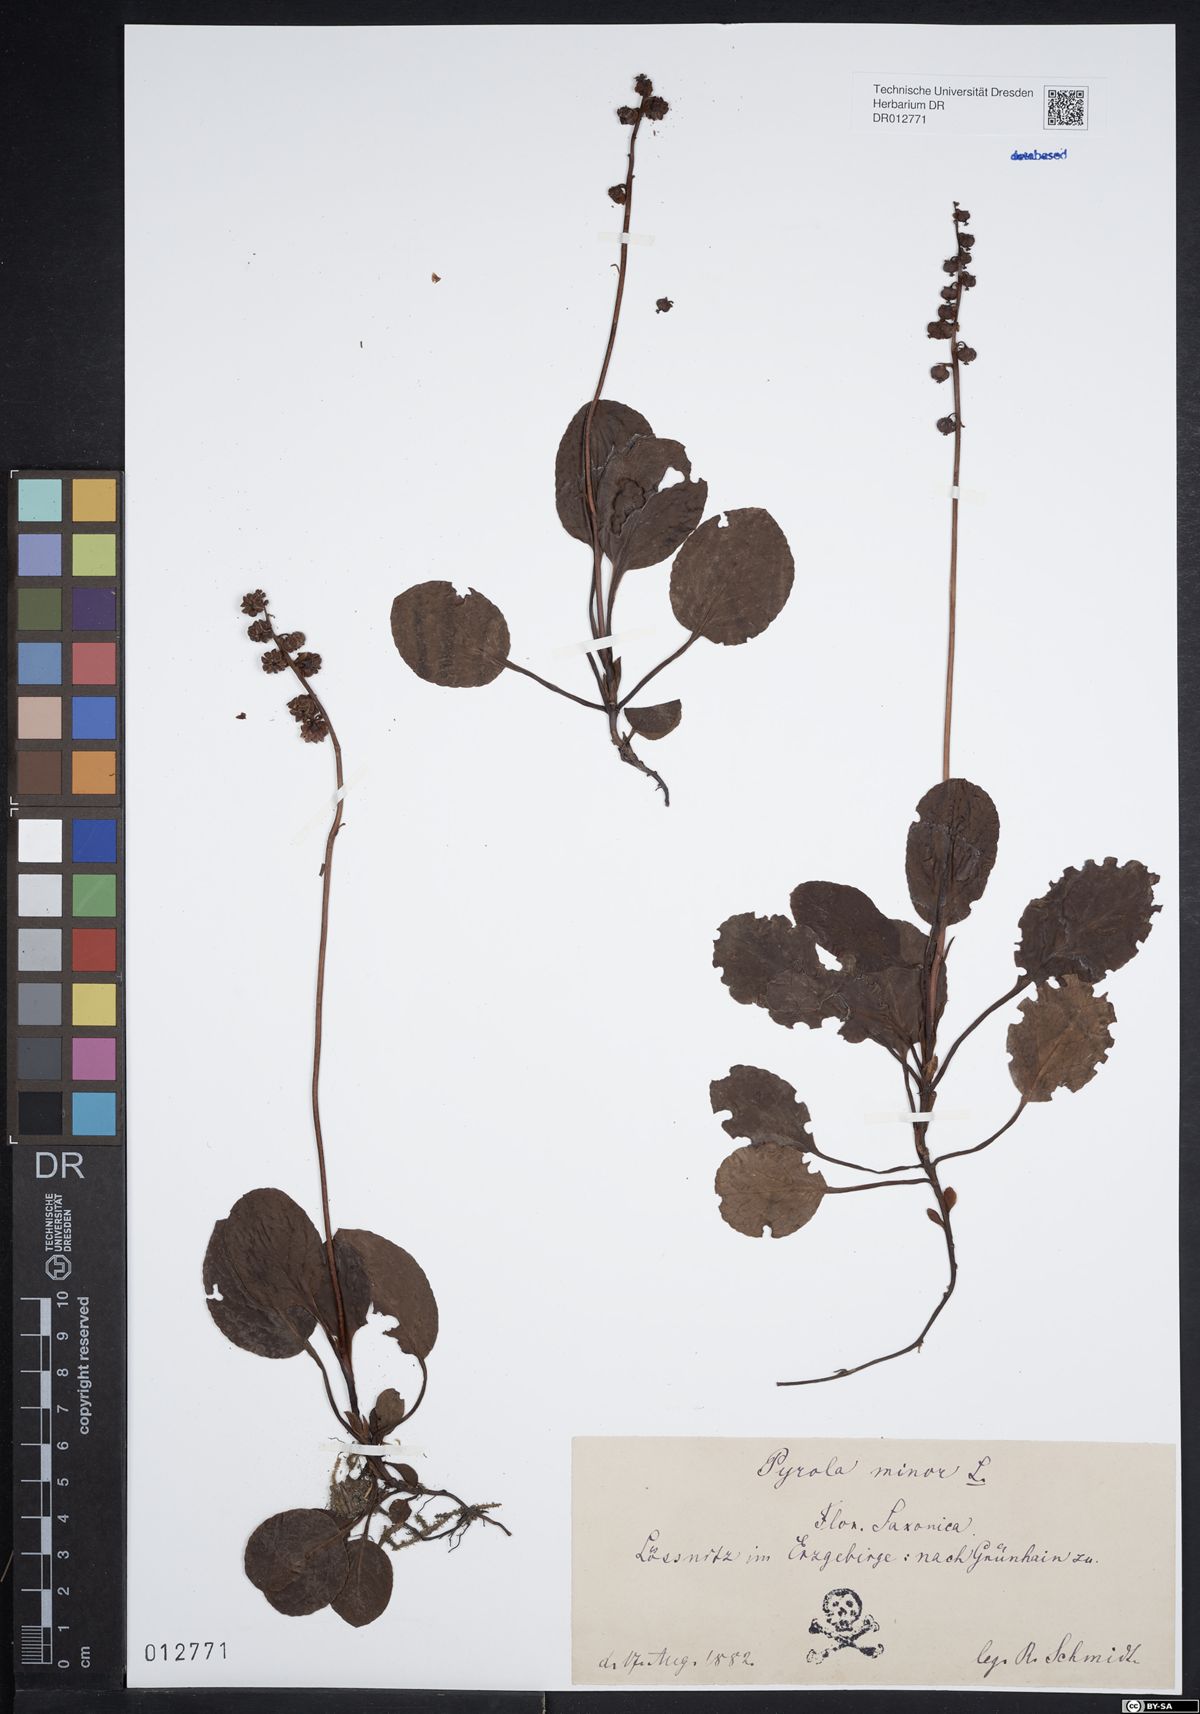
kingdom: Plantae
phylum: Tracheophyta
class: Magnoliopsida
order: Ericales
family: Ericaceae
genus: Pyrola
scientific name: Pyrola minor
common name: Common wintergreen
